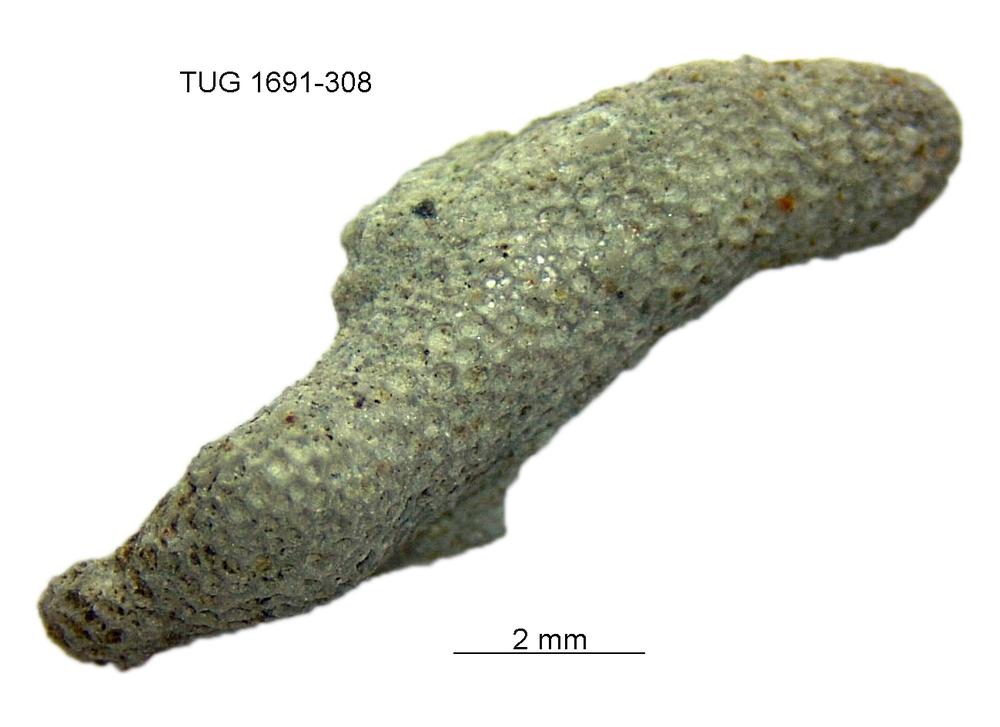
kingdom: Animalia
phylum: Bryozoa
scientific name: Bryozoa
